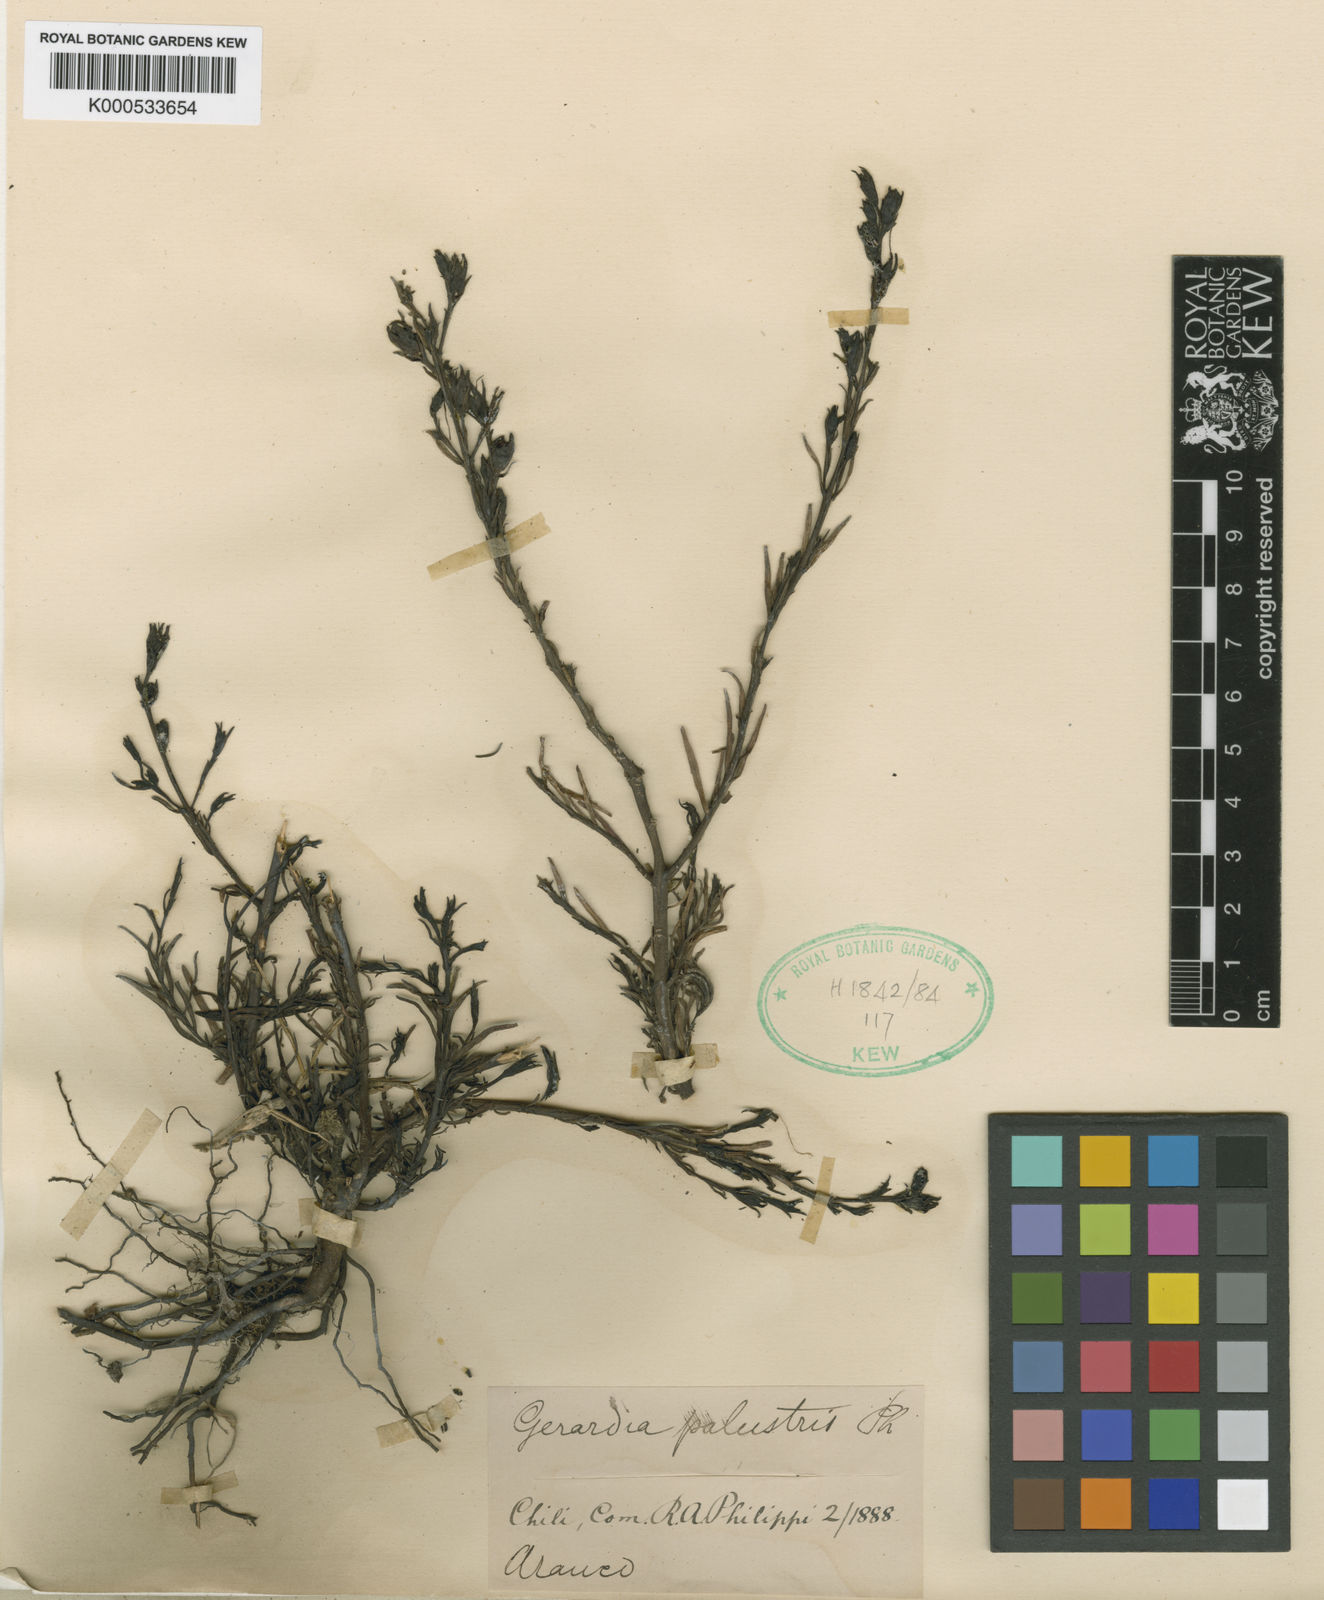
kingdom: Plantae
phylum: Tracheophyta
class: Magnoliopsida
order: Lamiales
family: Orobanchaceae
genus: Agalinis
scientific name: Agalinis purpurea
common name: Purple false foxglove
